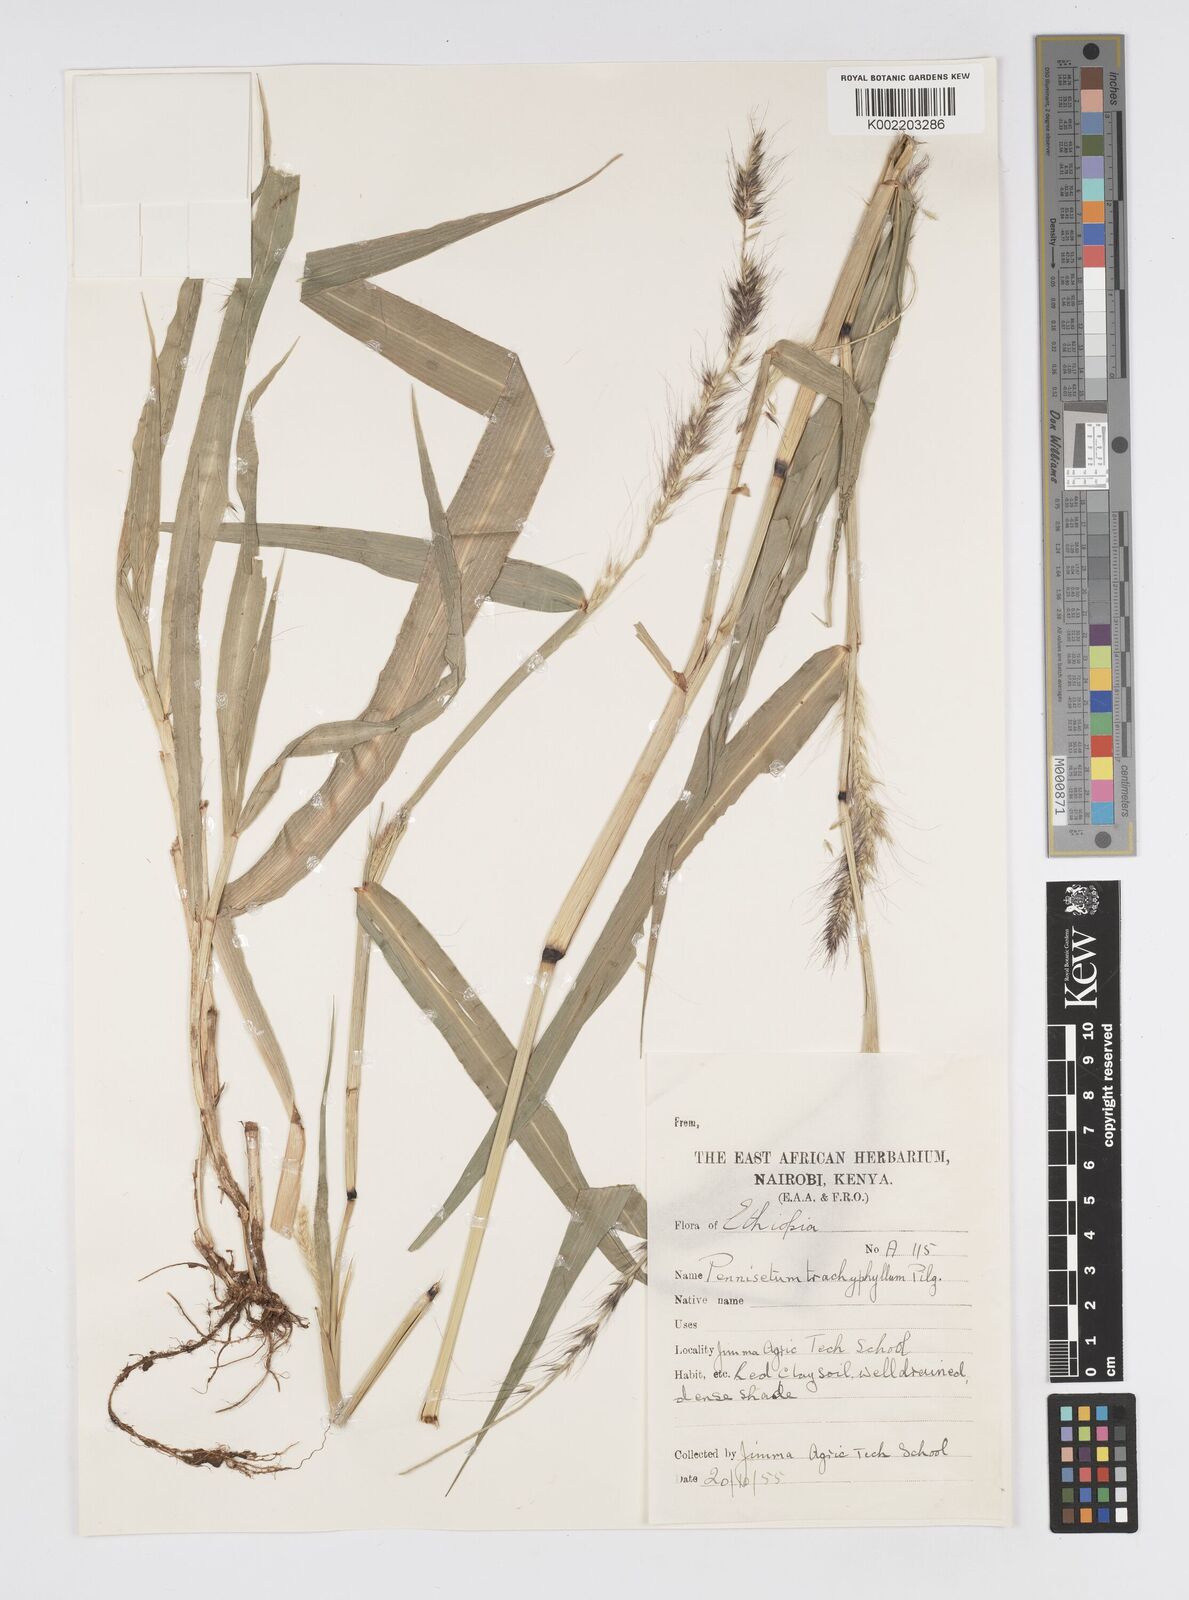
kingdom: Plantae
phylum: Tracheophyta
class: Liliopsida
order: Poales
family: Poaceae
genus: Cenchrus
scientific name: Cenchrus trachyphyllus
